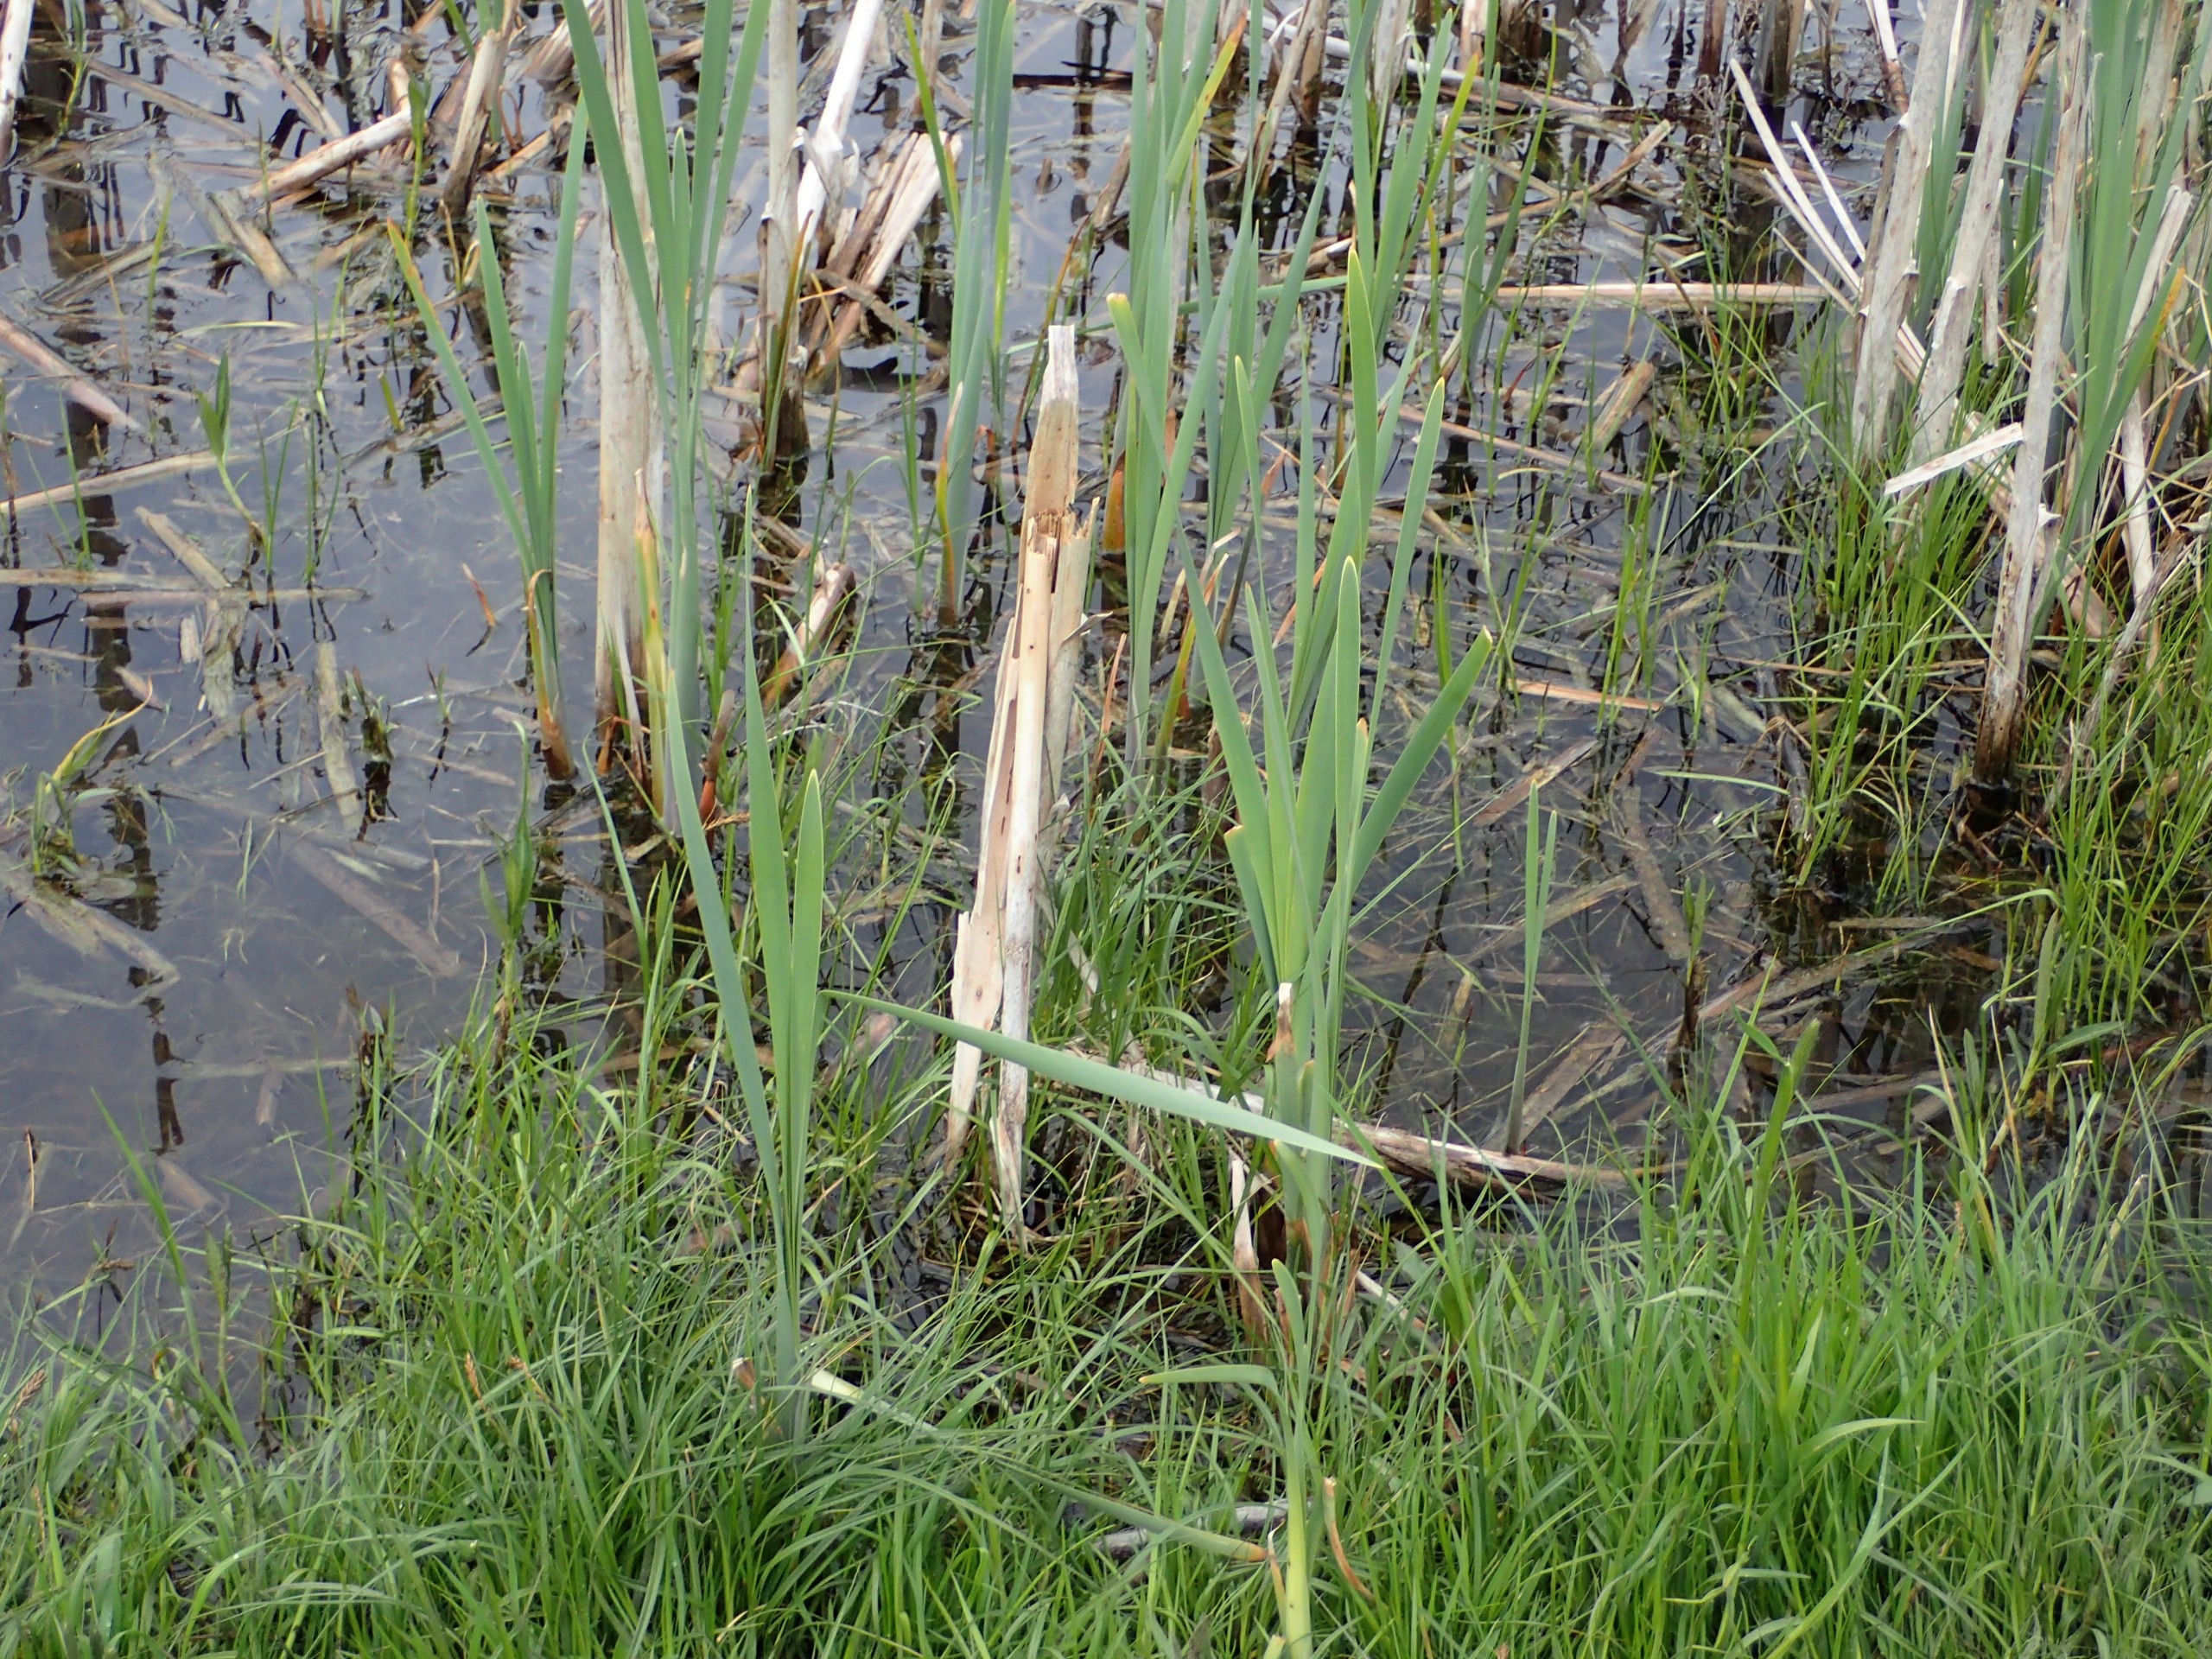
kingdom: Plantae
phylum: Tracheophyta
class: Liliopsida
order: Poales
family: Typhaceae
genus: Typha
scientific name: Typha latifolia
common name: Bredbladet dunhammer
